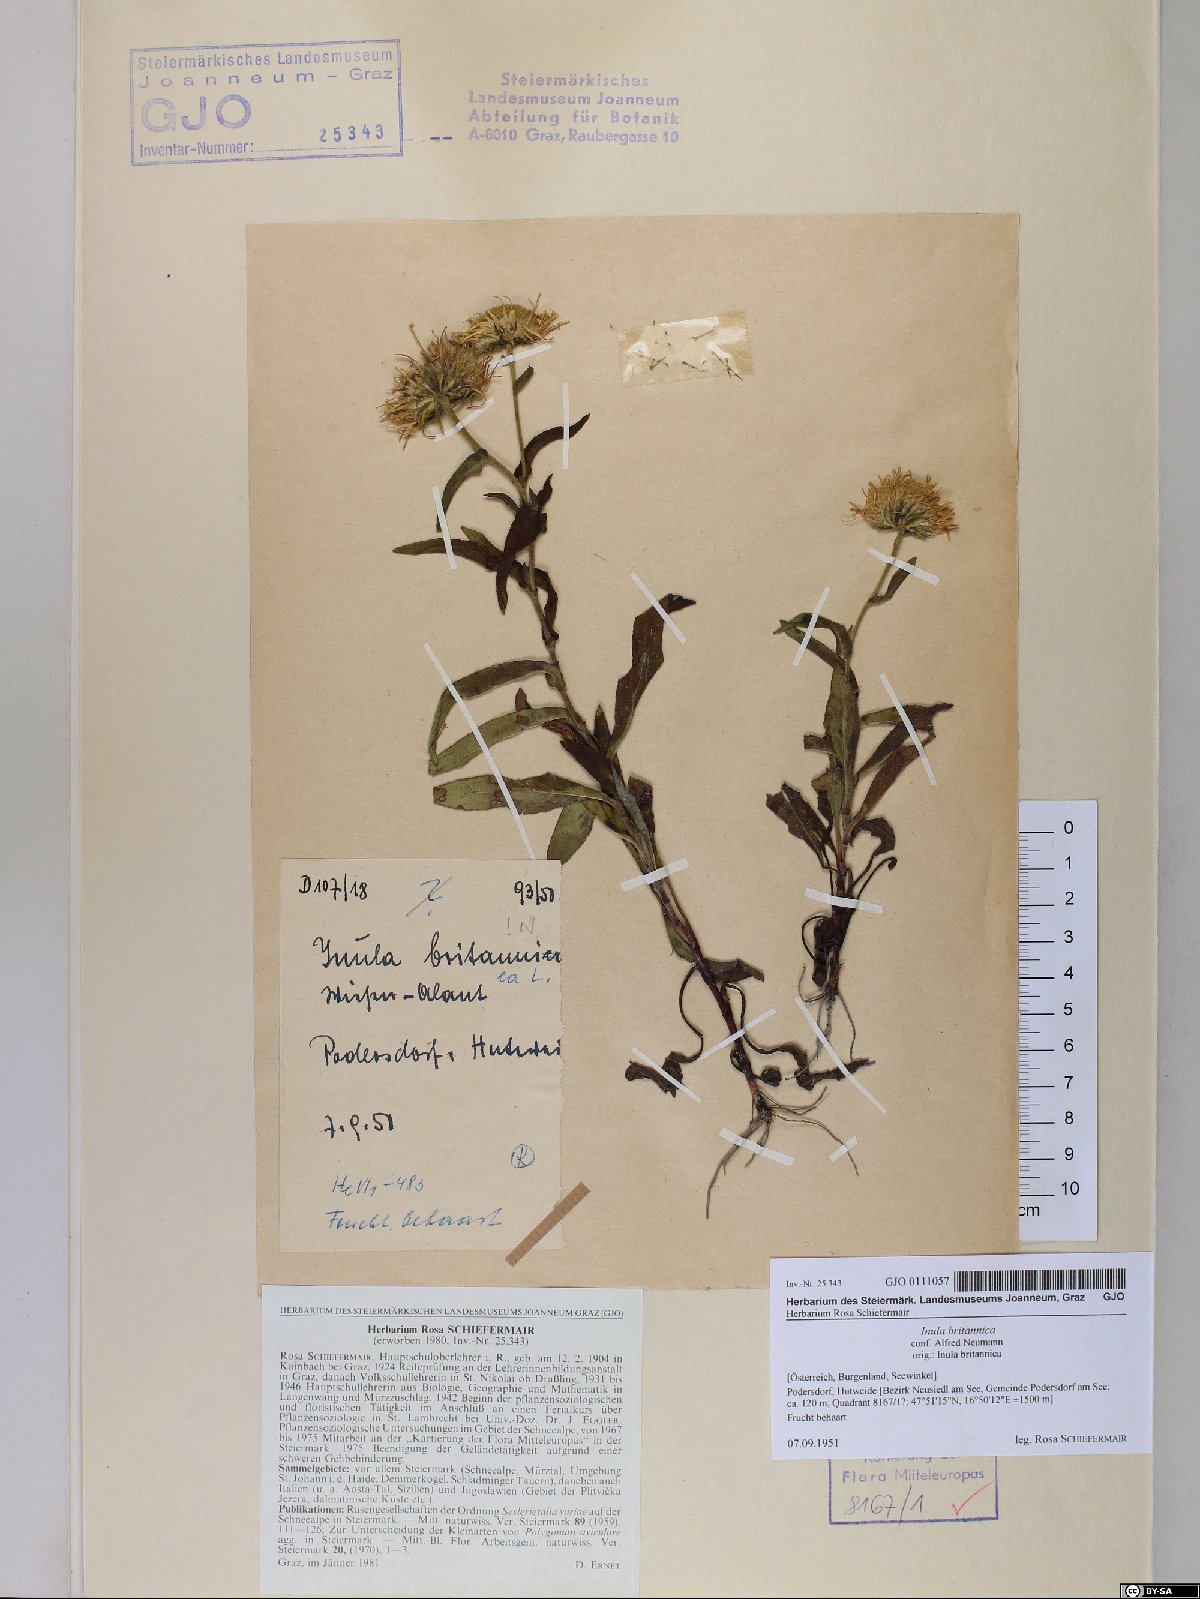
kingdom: Plantae
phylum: Tracheophyta
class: Magnoliopsida
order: Asterales
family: Asteraceae
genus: Pentanema
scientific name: Pentanema britannicum
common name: British elecampane
